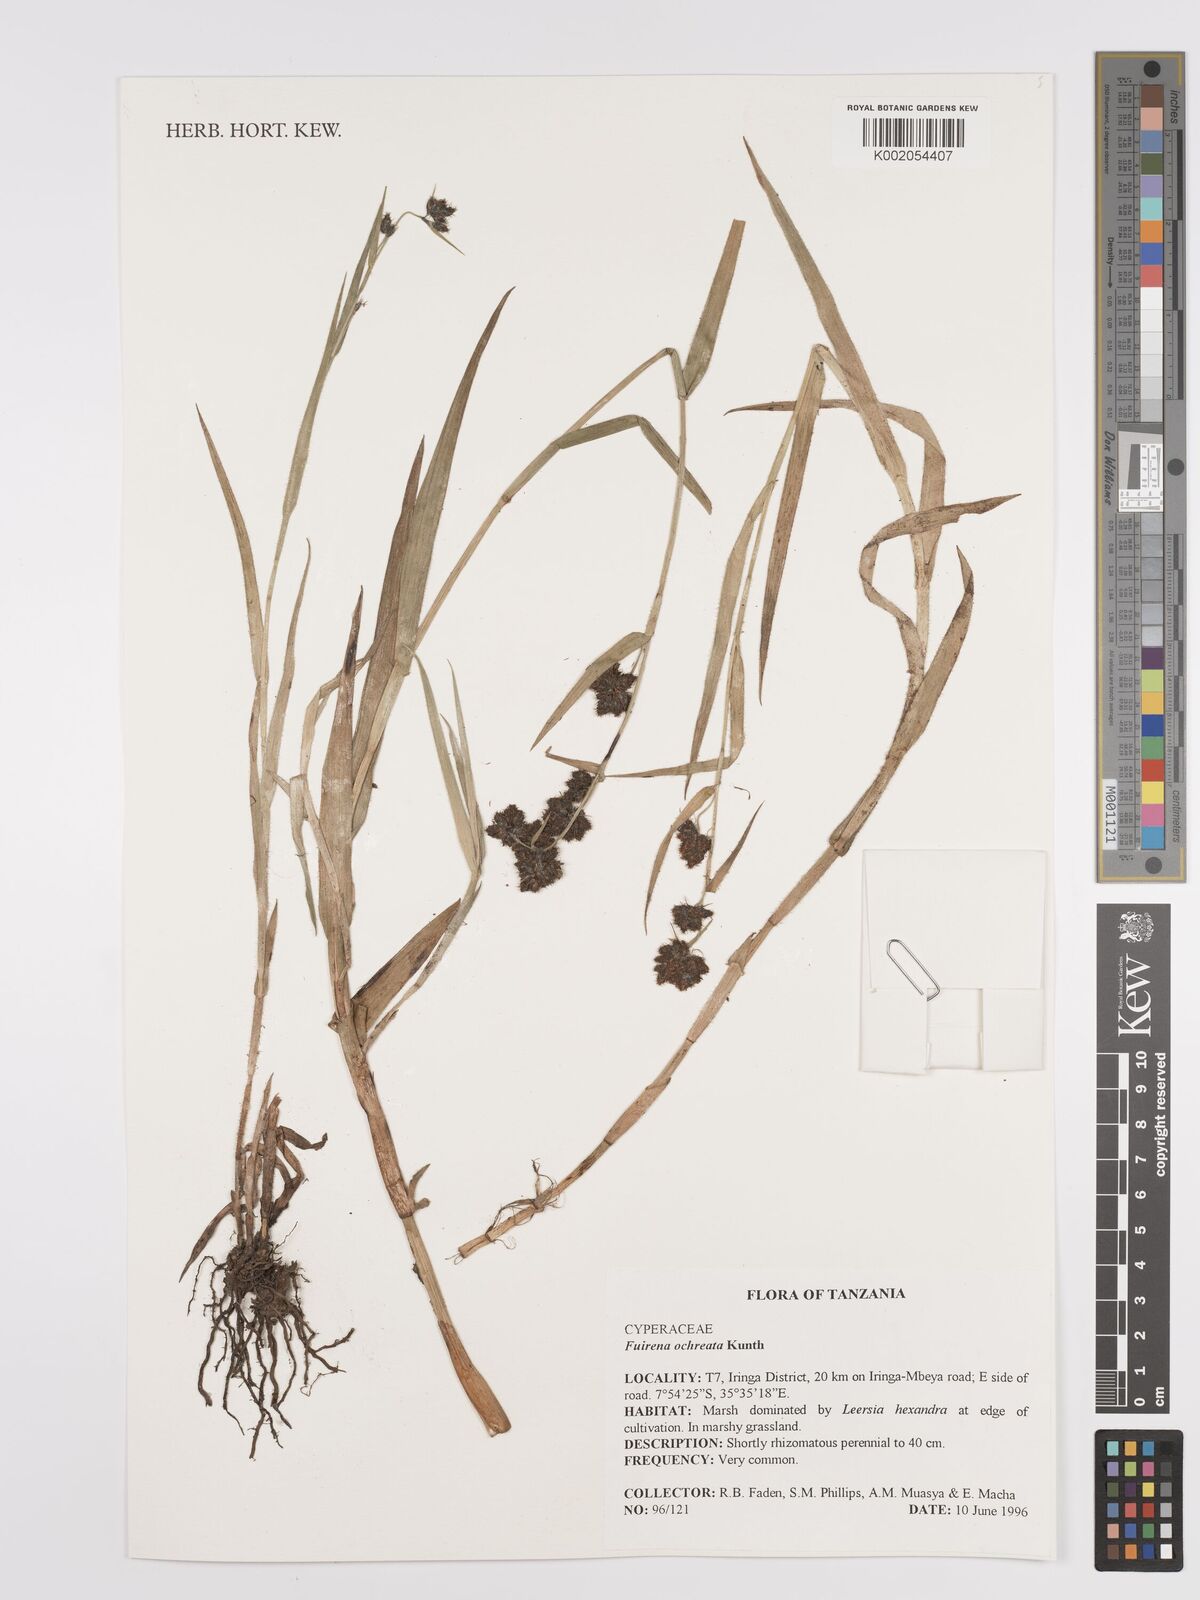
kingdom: Plantae
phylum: Tracheophyta
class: Liliopsida
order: Poales
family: Cyperaceae
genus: Fuirena
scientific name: Fuirena ochreata
